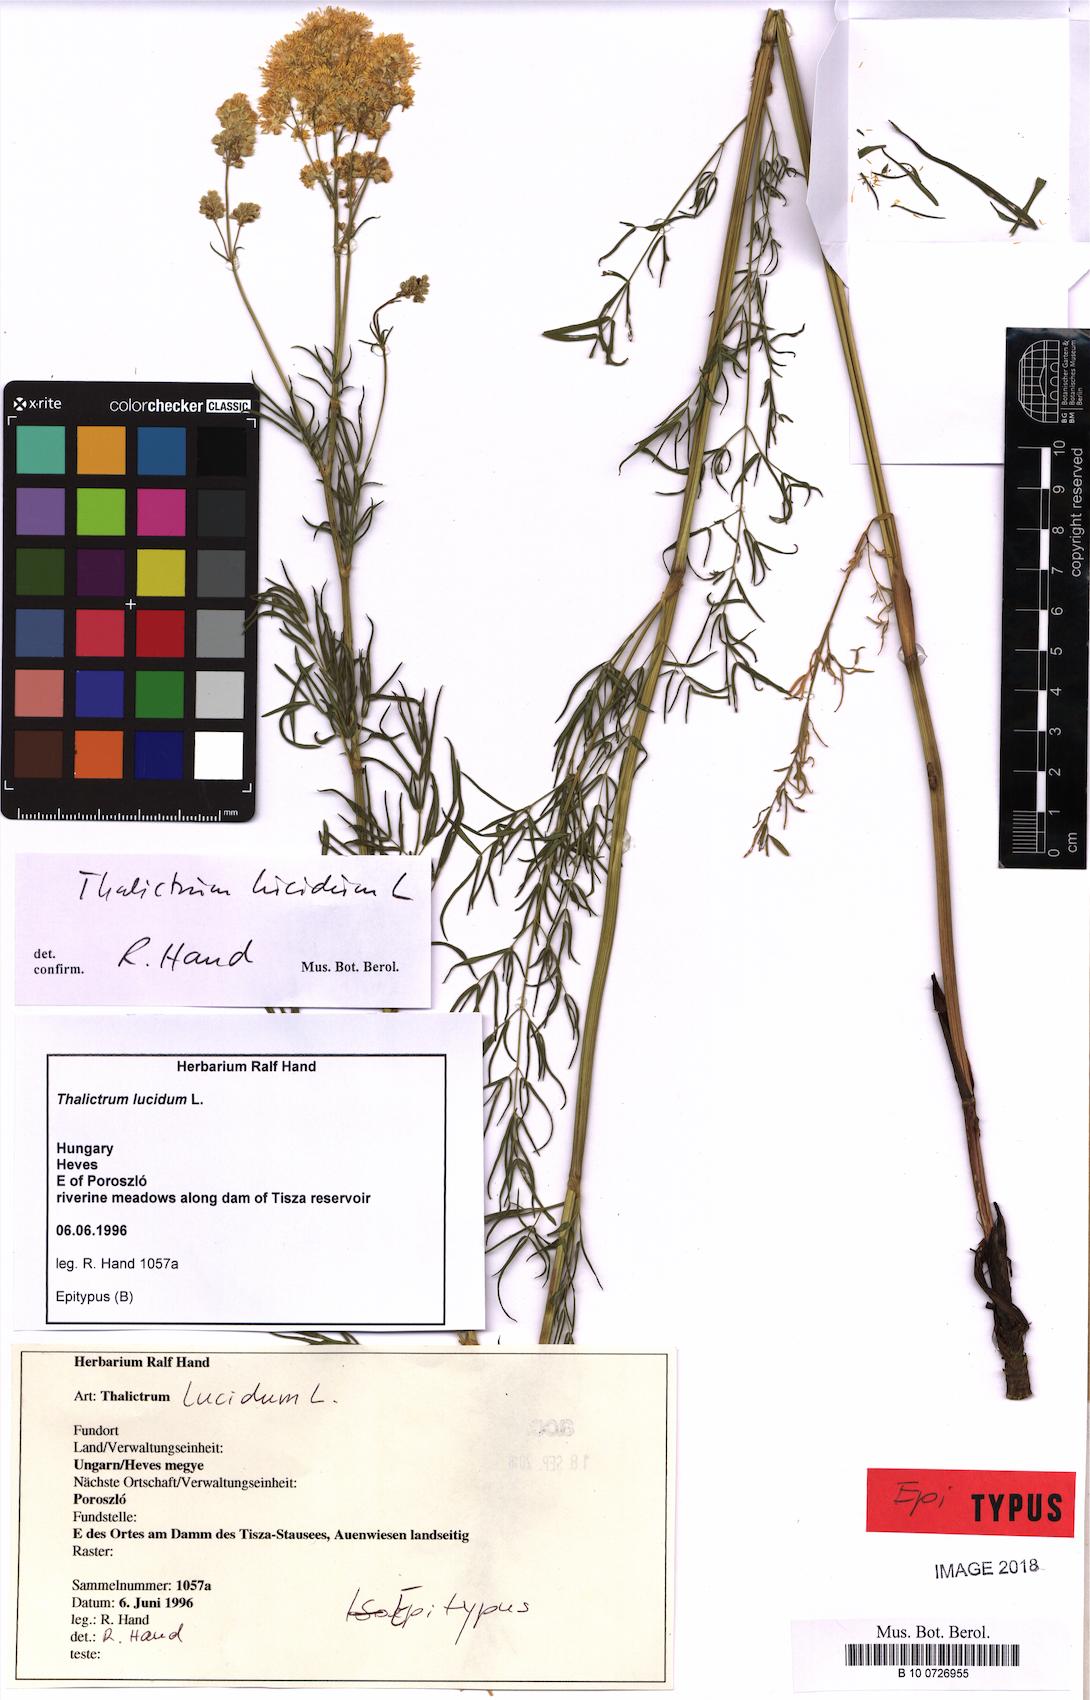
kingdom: Plantae
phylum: Tracheophyta
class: Magnoliopsida
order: Ranunculales
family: Ranunculaceae
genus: Thalictrum
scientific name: Thalictrum lucidum
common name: Shining meadow-rue
